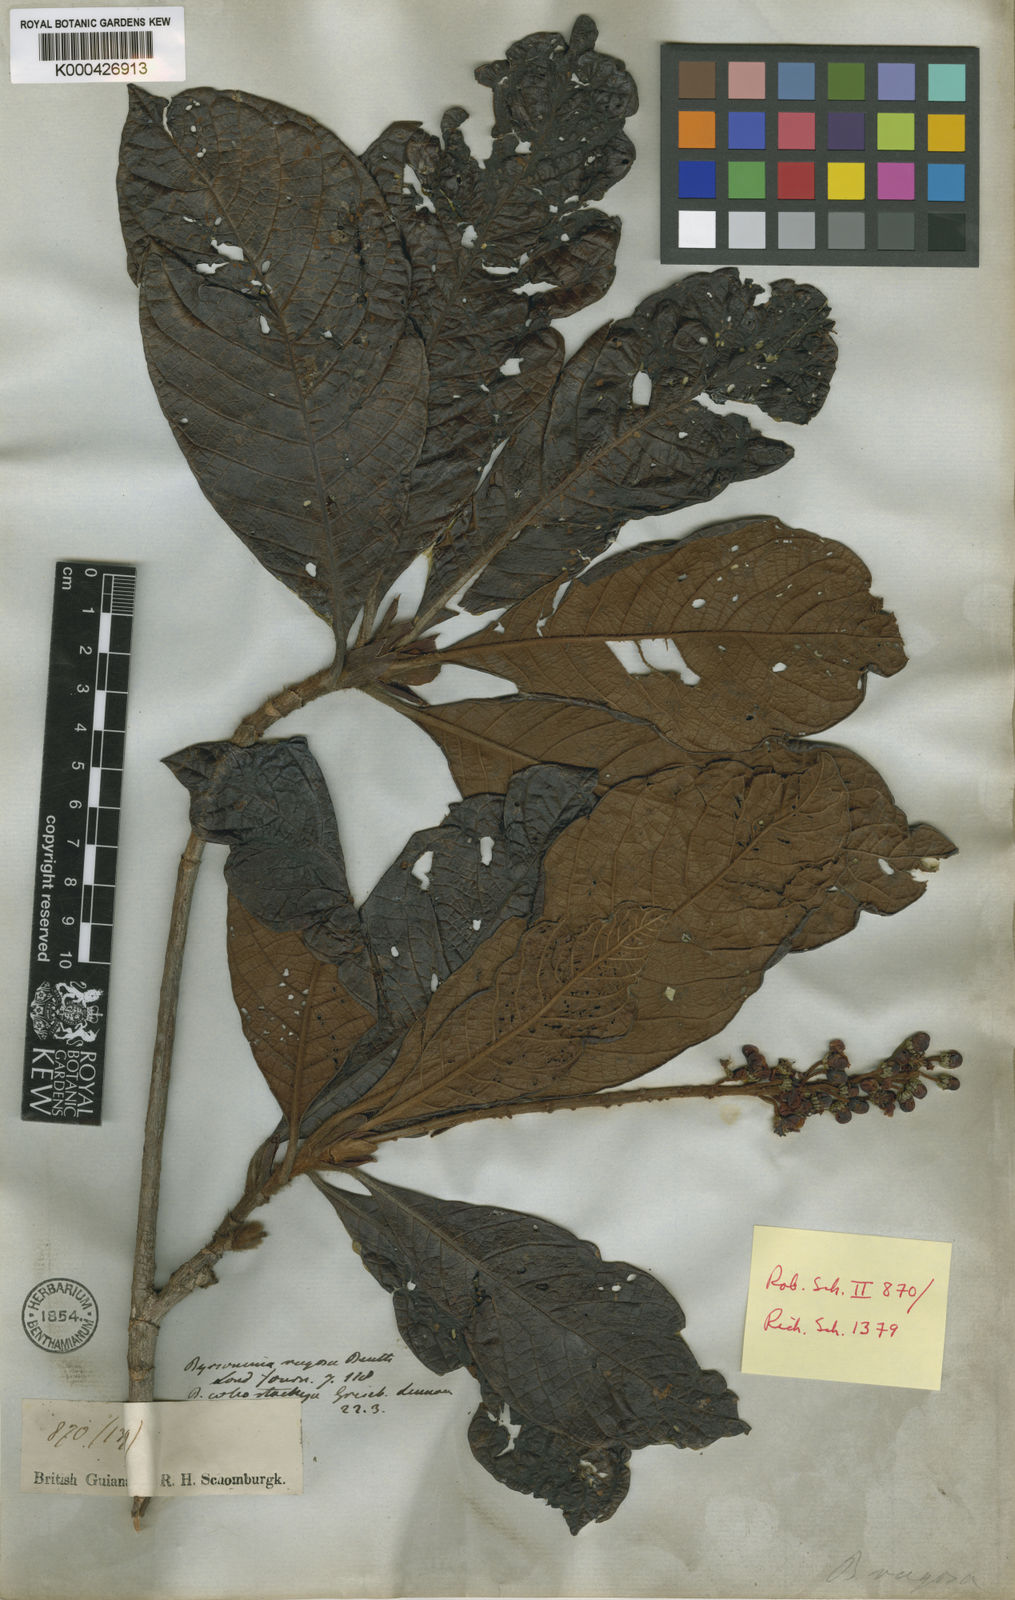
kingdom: Plantae
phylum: Tracheophyta
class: Magnoliopsida
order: Malpighiales
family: Malpighiaceae
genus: Byrsonima
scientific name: Byrsonima stipulacea
